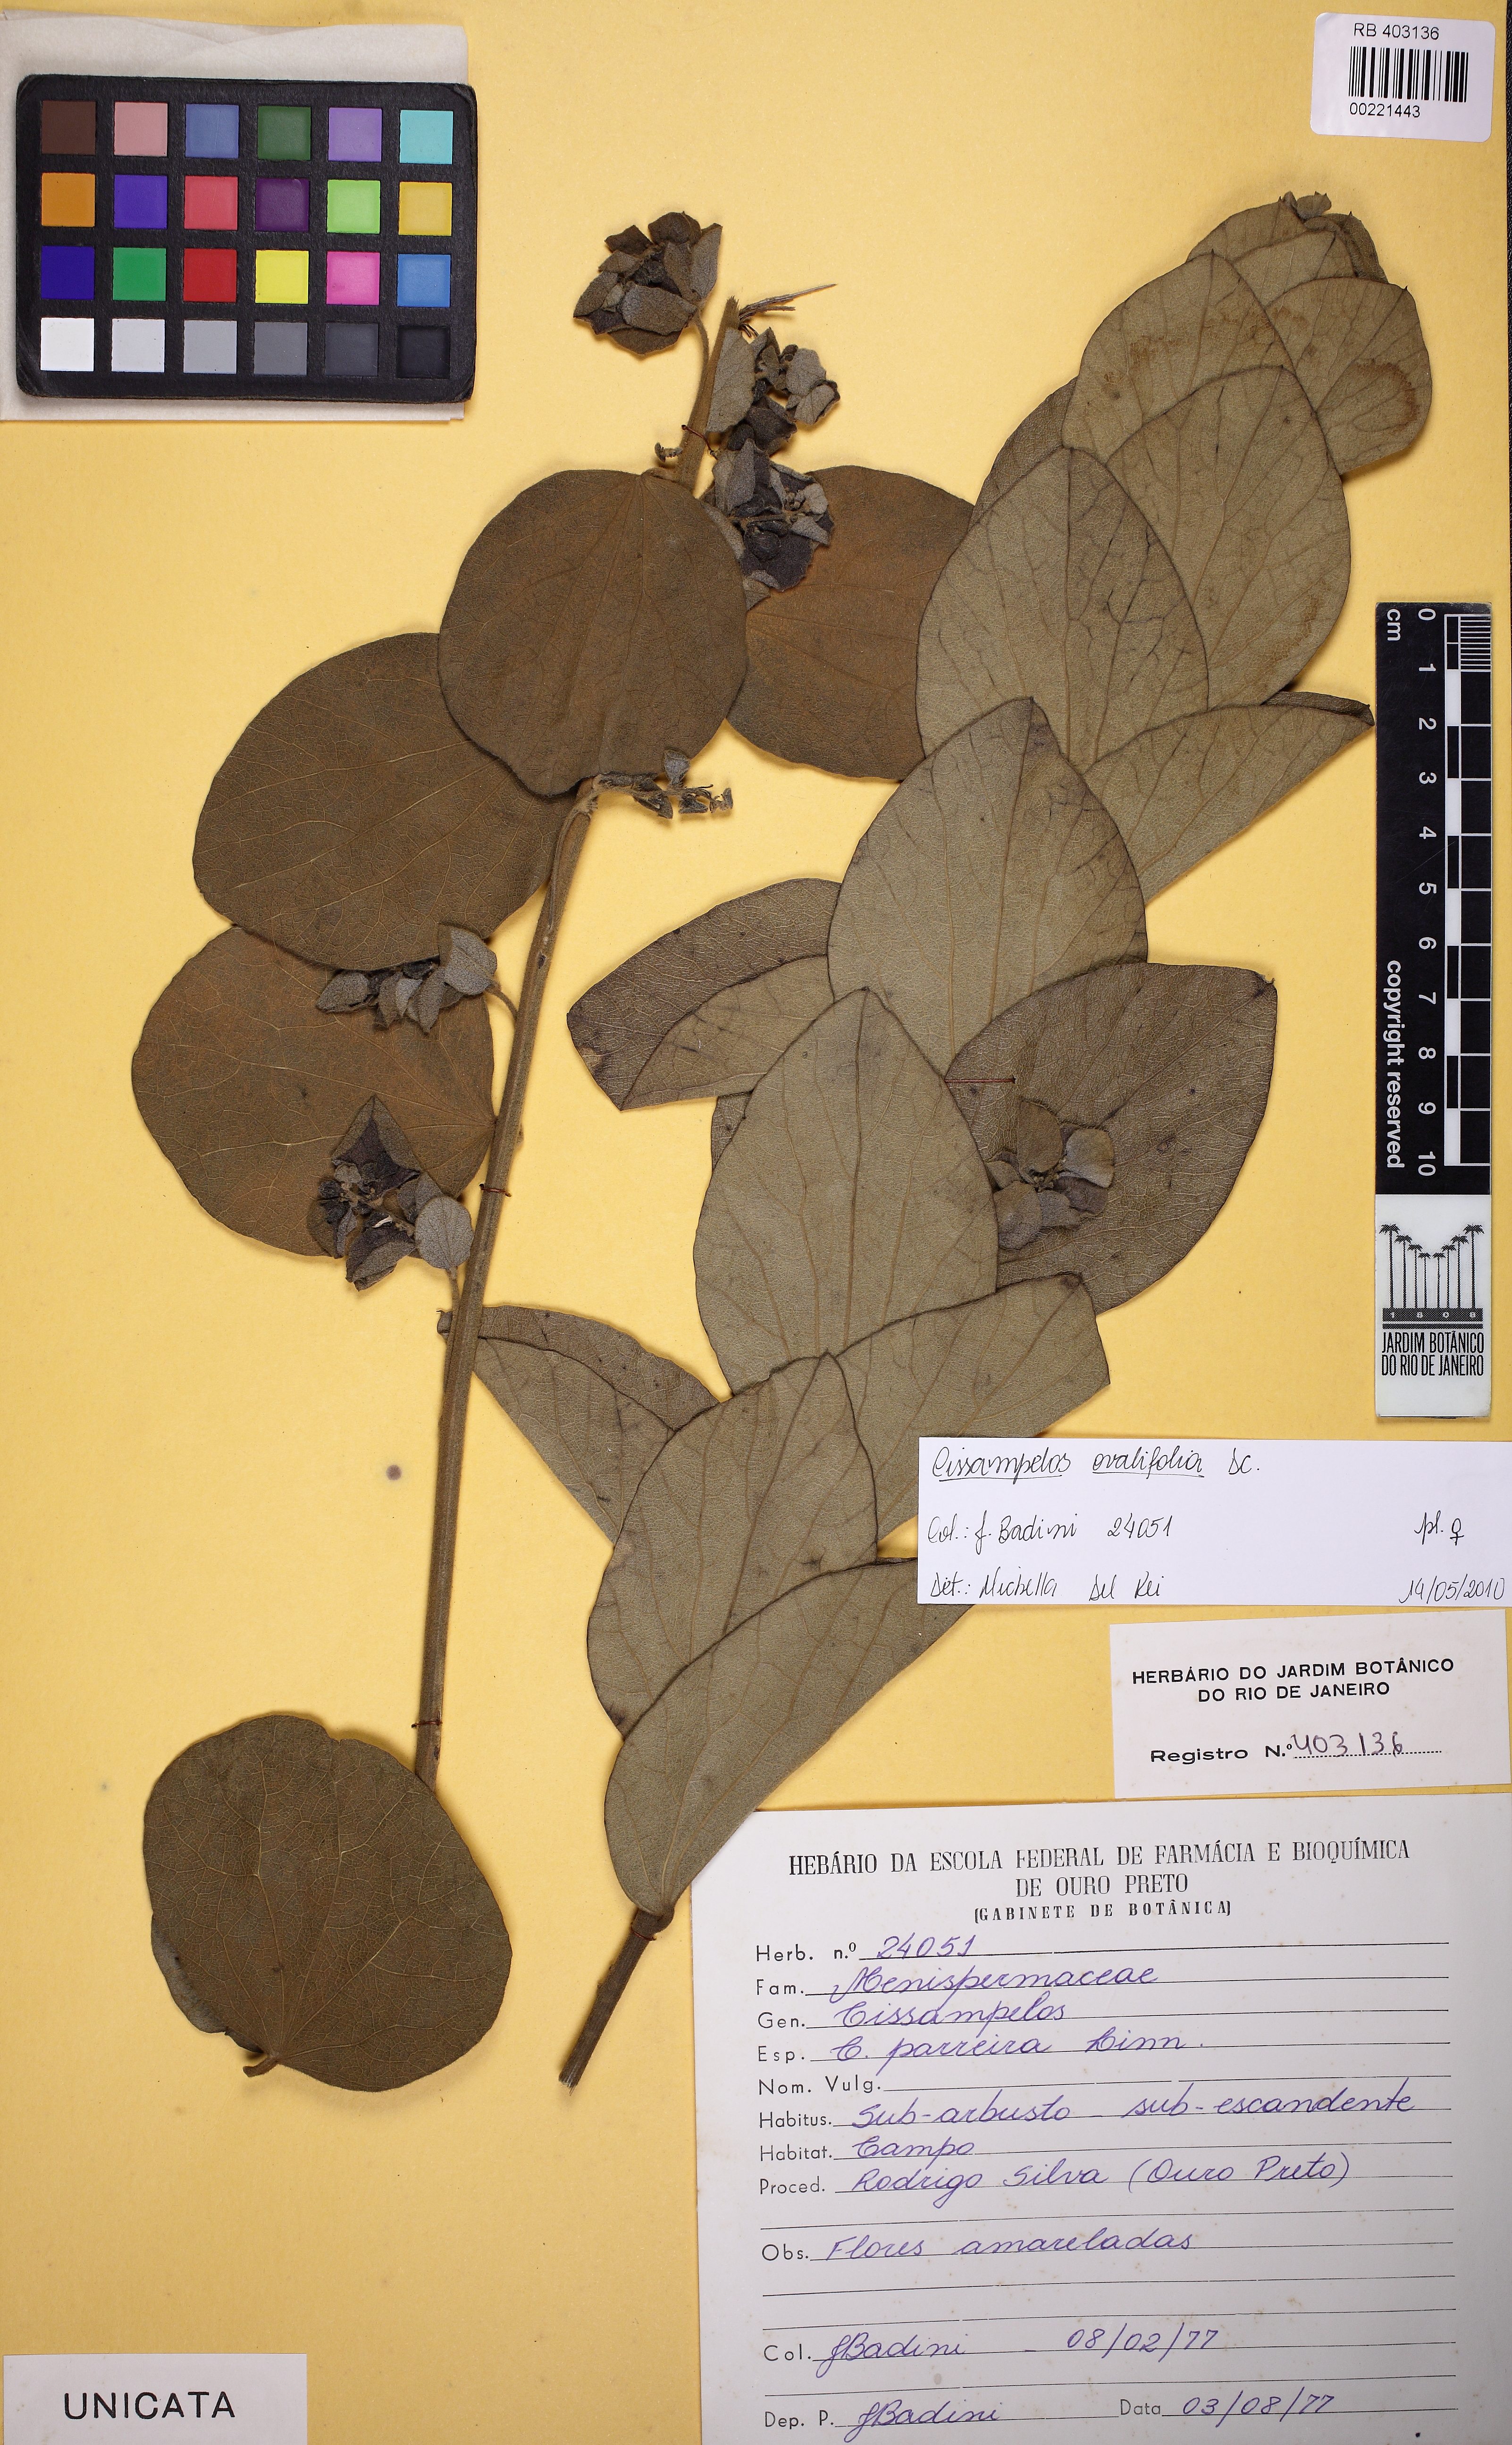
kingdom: Plantae
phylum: Tracheophyta
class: Magnoliopsida
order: Ranunculales
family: Menispermaceae
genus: Cissampelos
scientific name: Cissampelos ovalifolia
